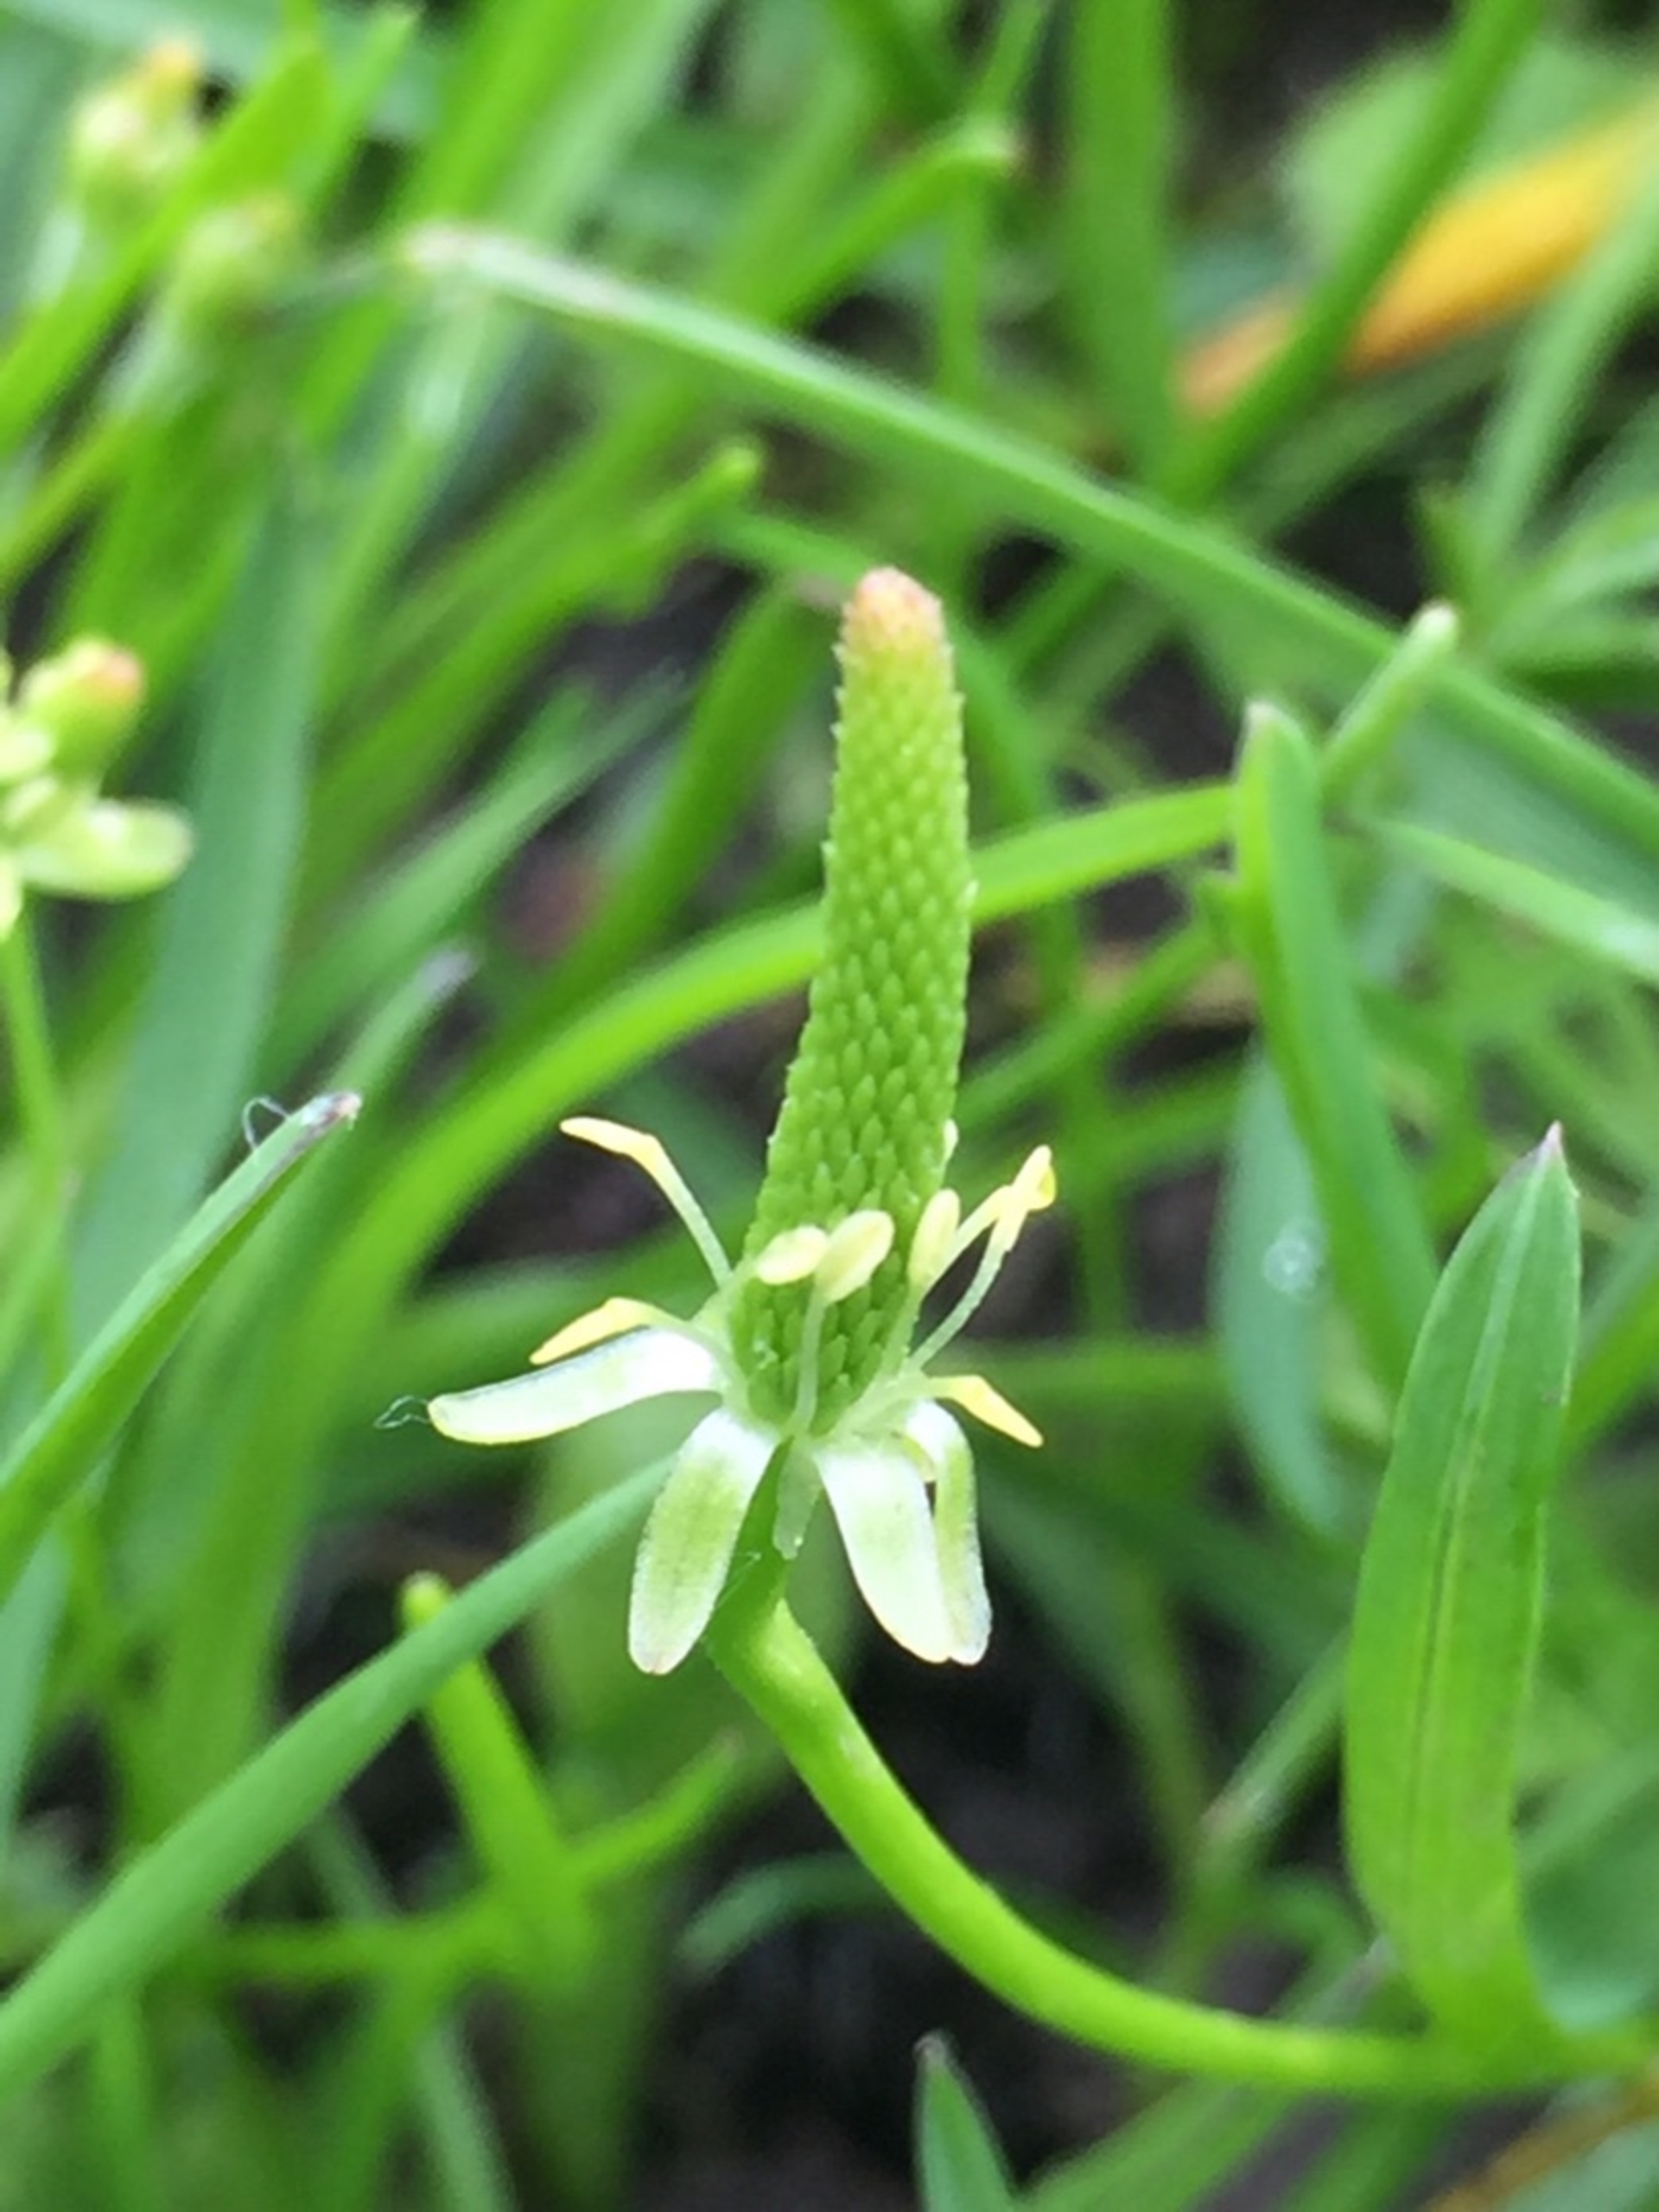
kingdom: Plantae
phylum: Tracheophyta
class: Magnoliopsida
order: Ranunculales
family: Ranunculaceae
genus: Myosurus
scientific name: Myosurus minimus
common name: Musehale
